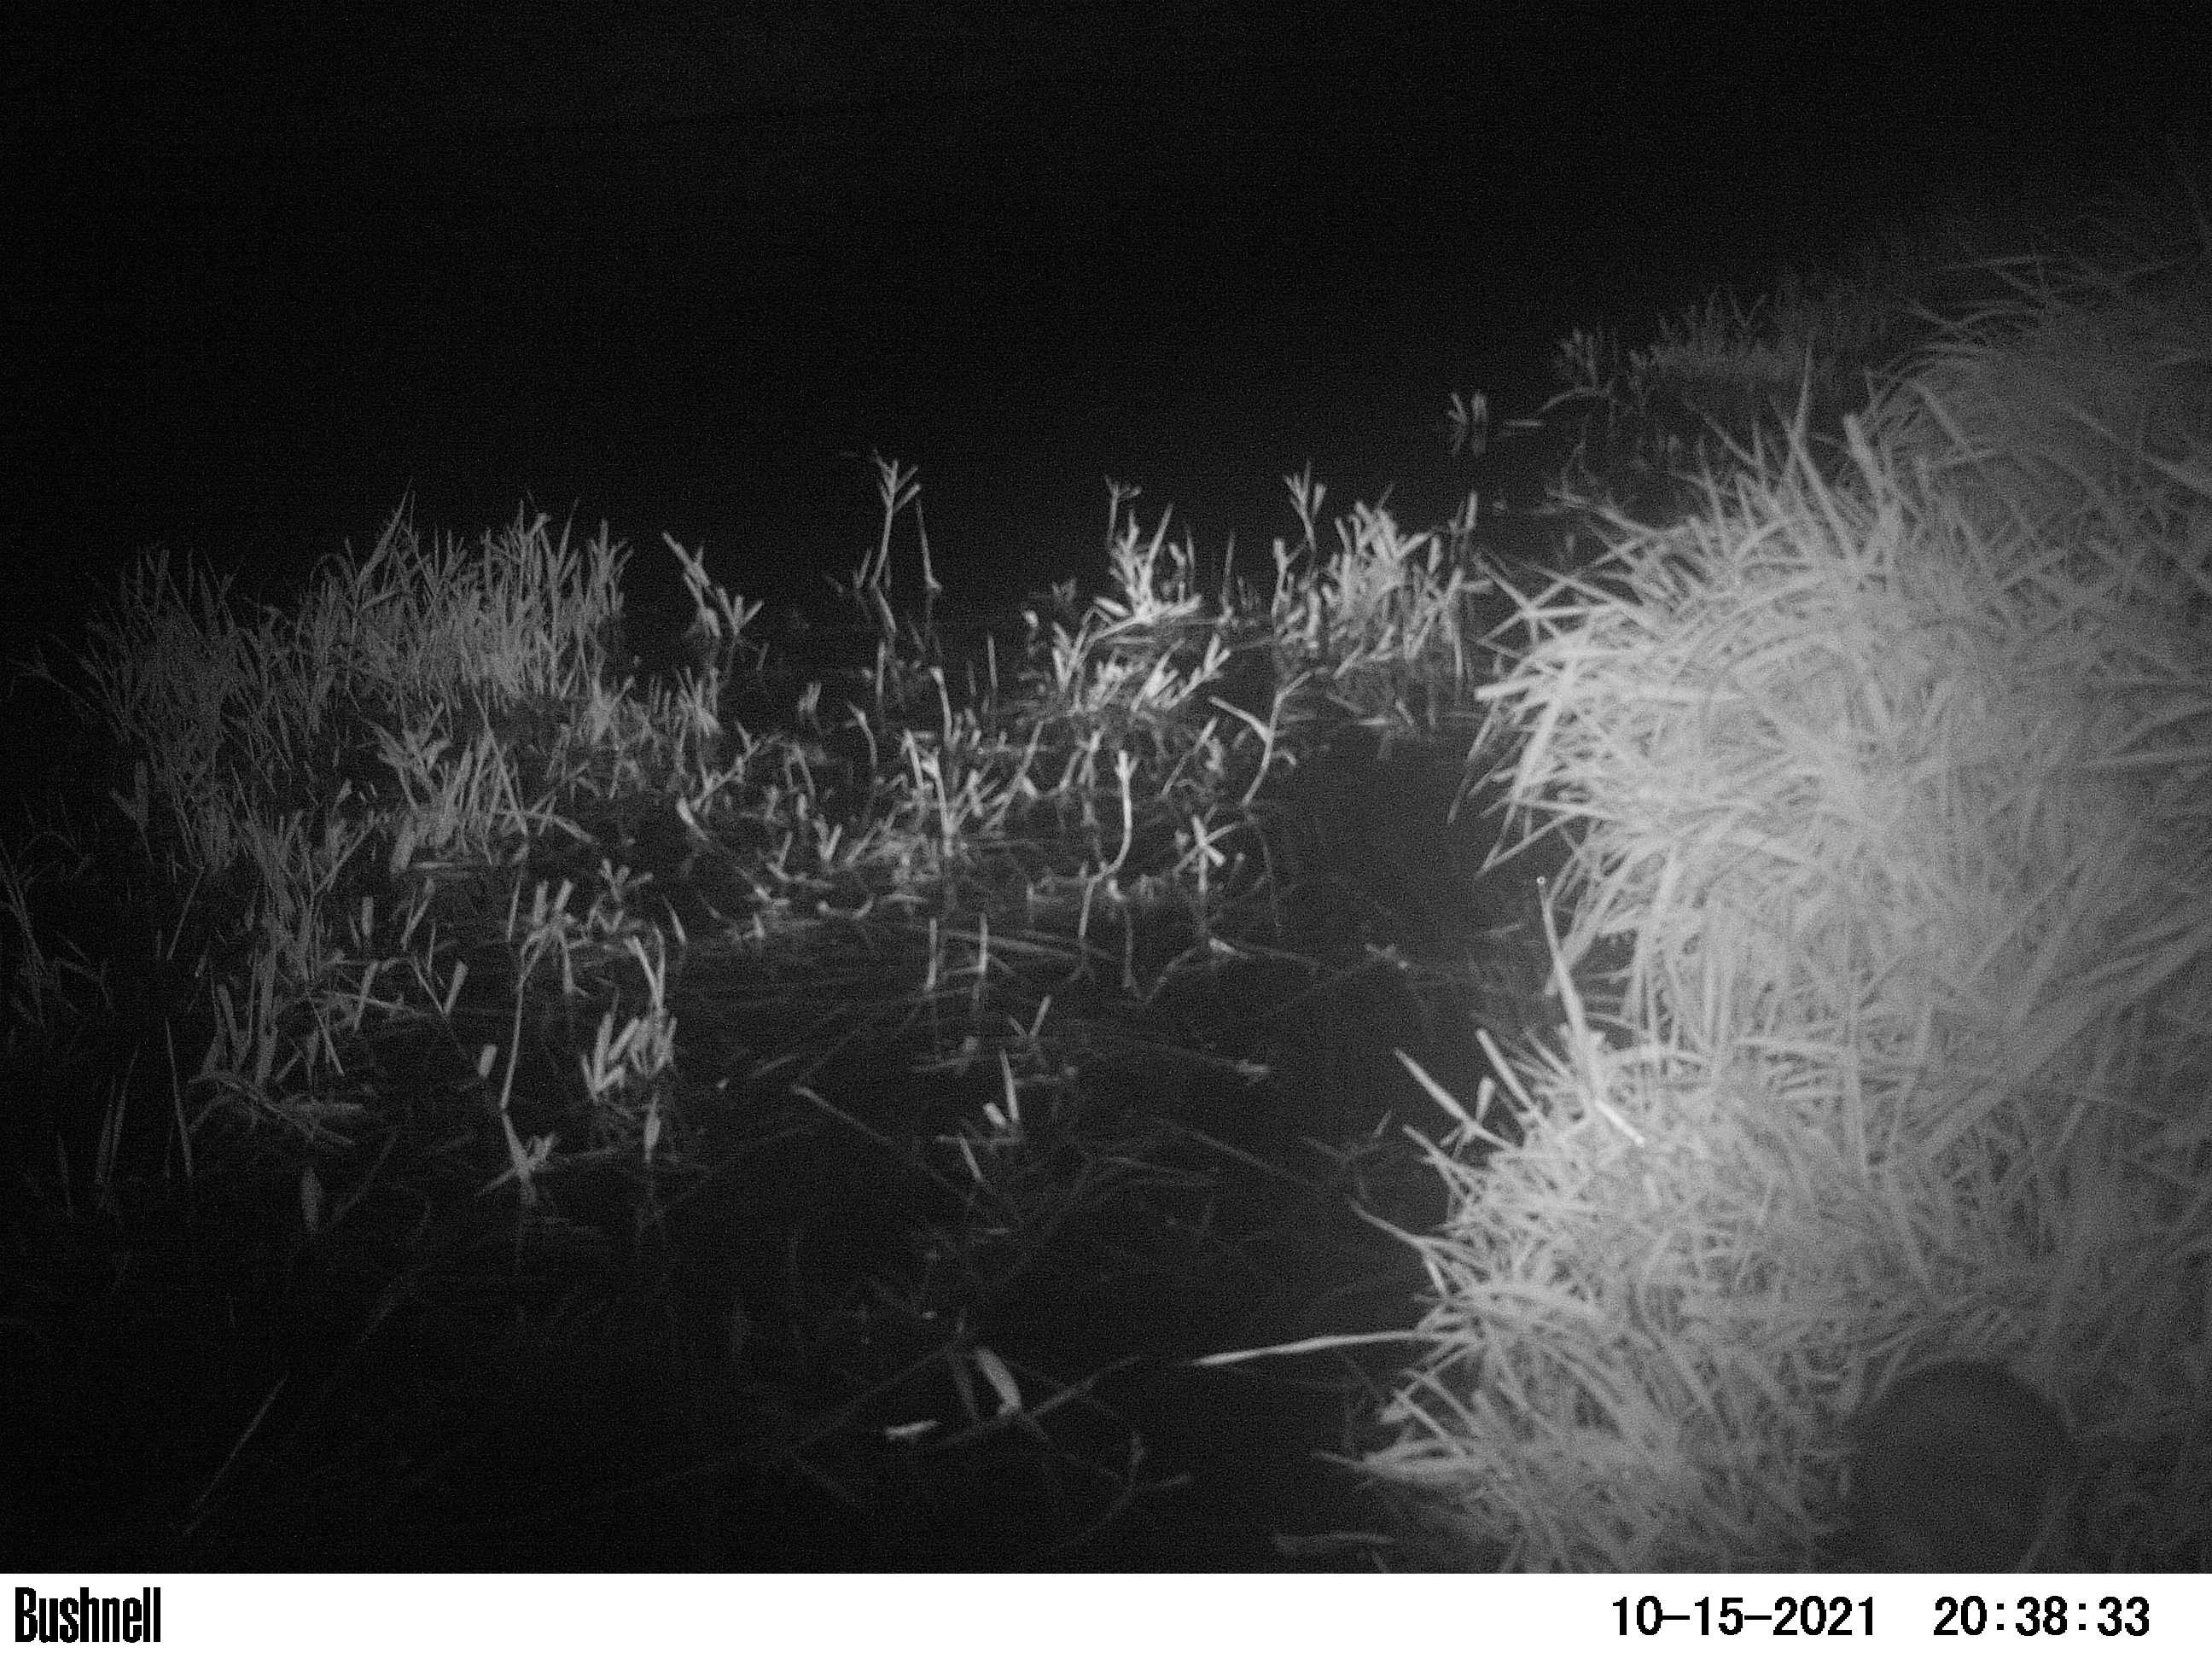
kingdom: Animalia
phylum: Chordata
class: Mammalia
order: Rodentia
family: Muridae
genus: Rattus
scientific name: Rattus norvegicus
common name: Brown rat
